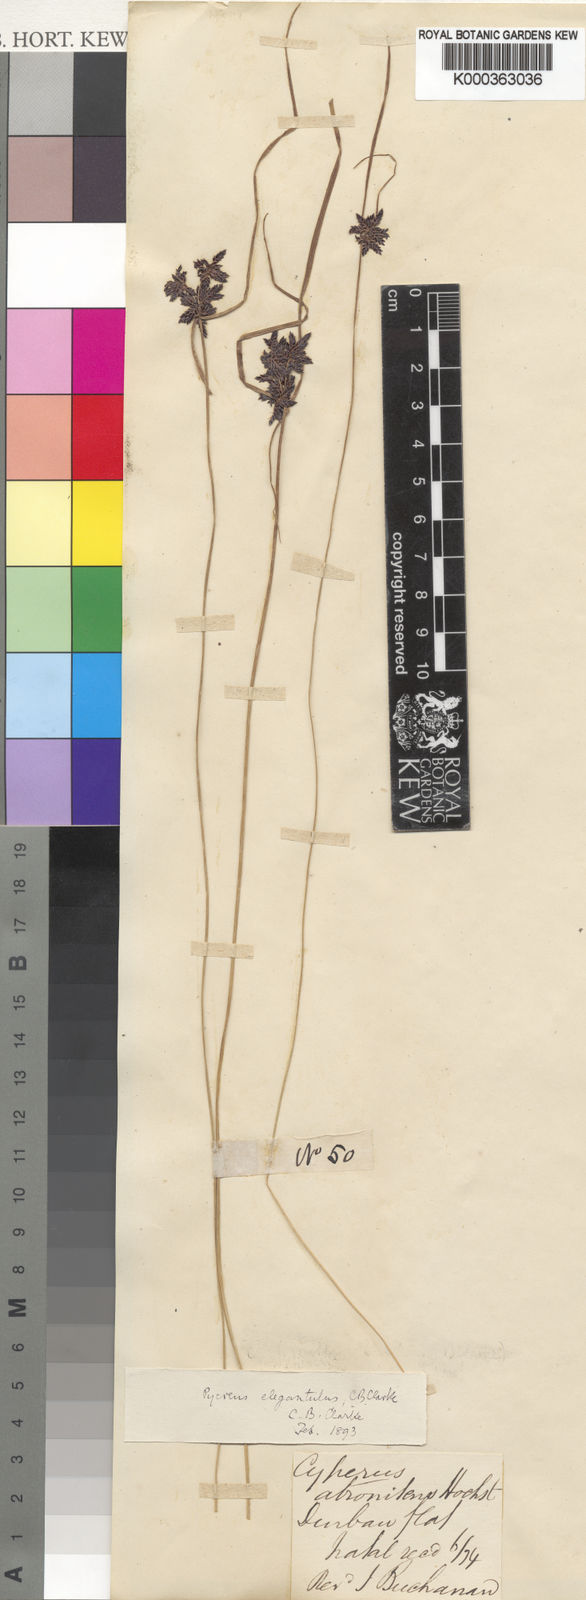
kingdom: Plantae
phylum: Tracheophyta
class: Liliopsida
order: Poales
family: Cyperaceae
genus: Cyperus
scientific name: Cyperus elegantulus
